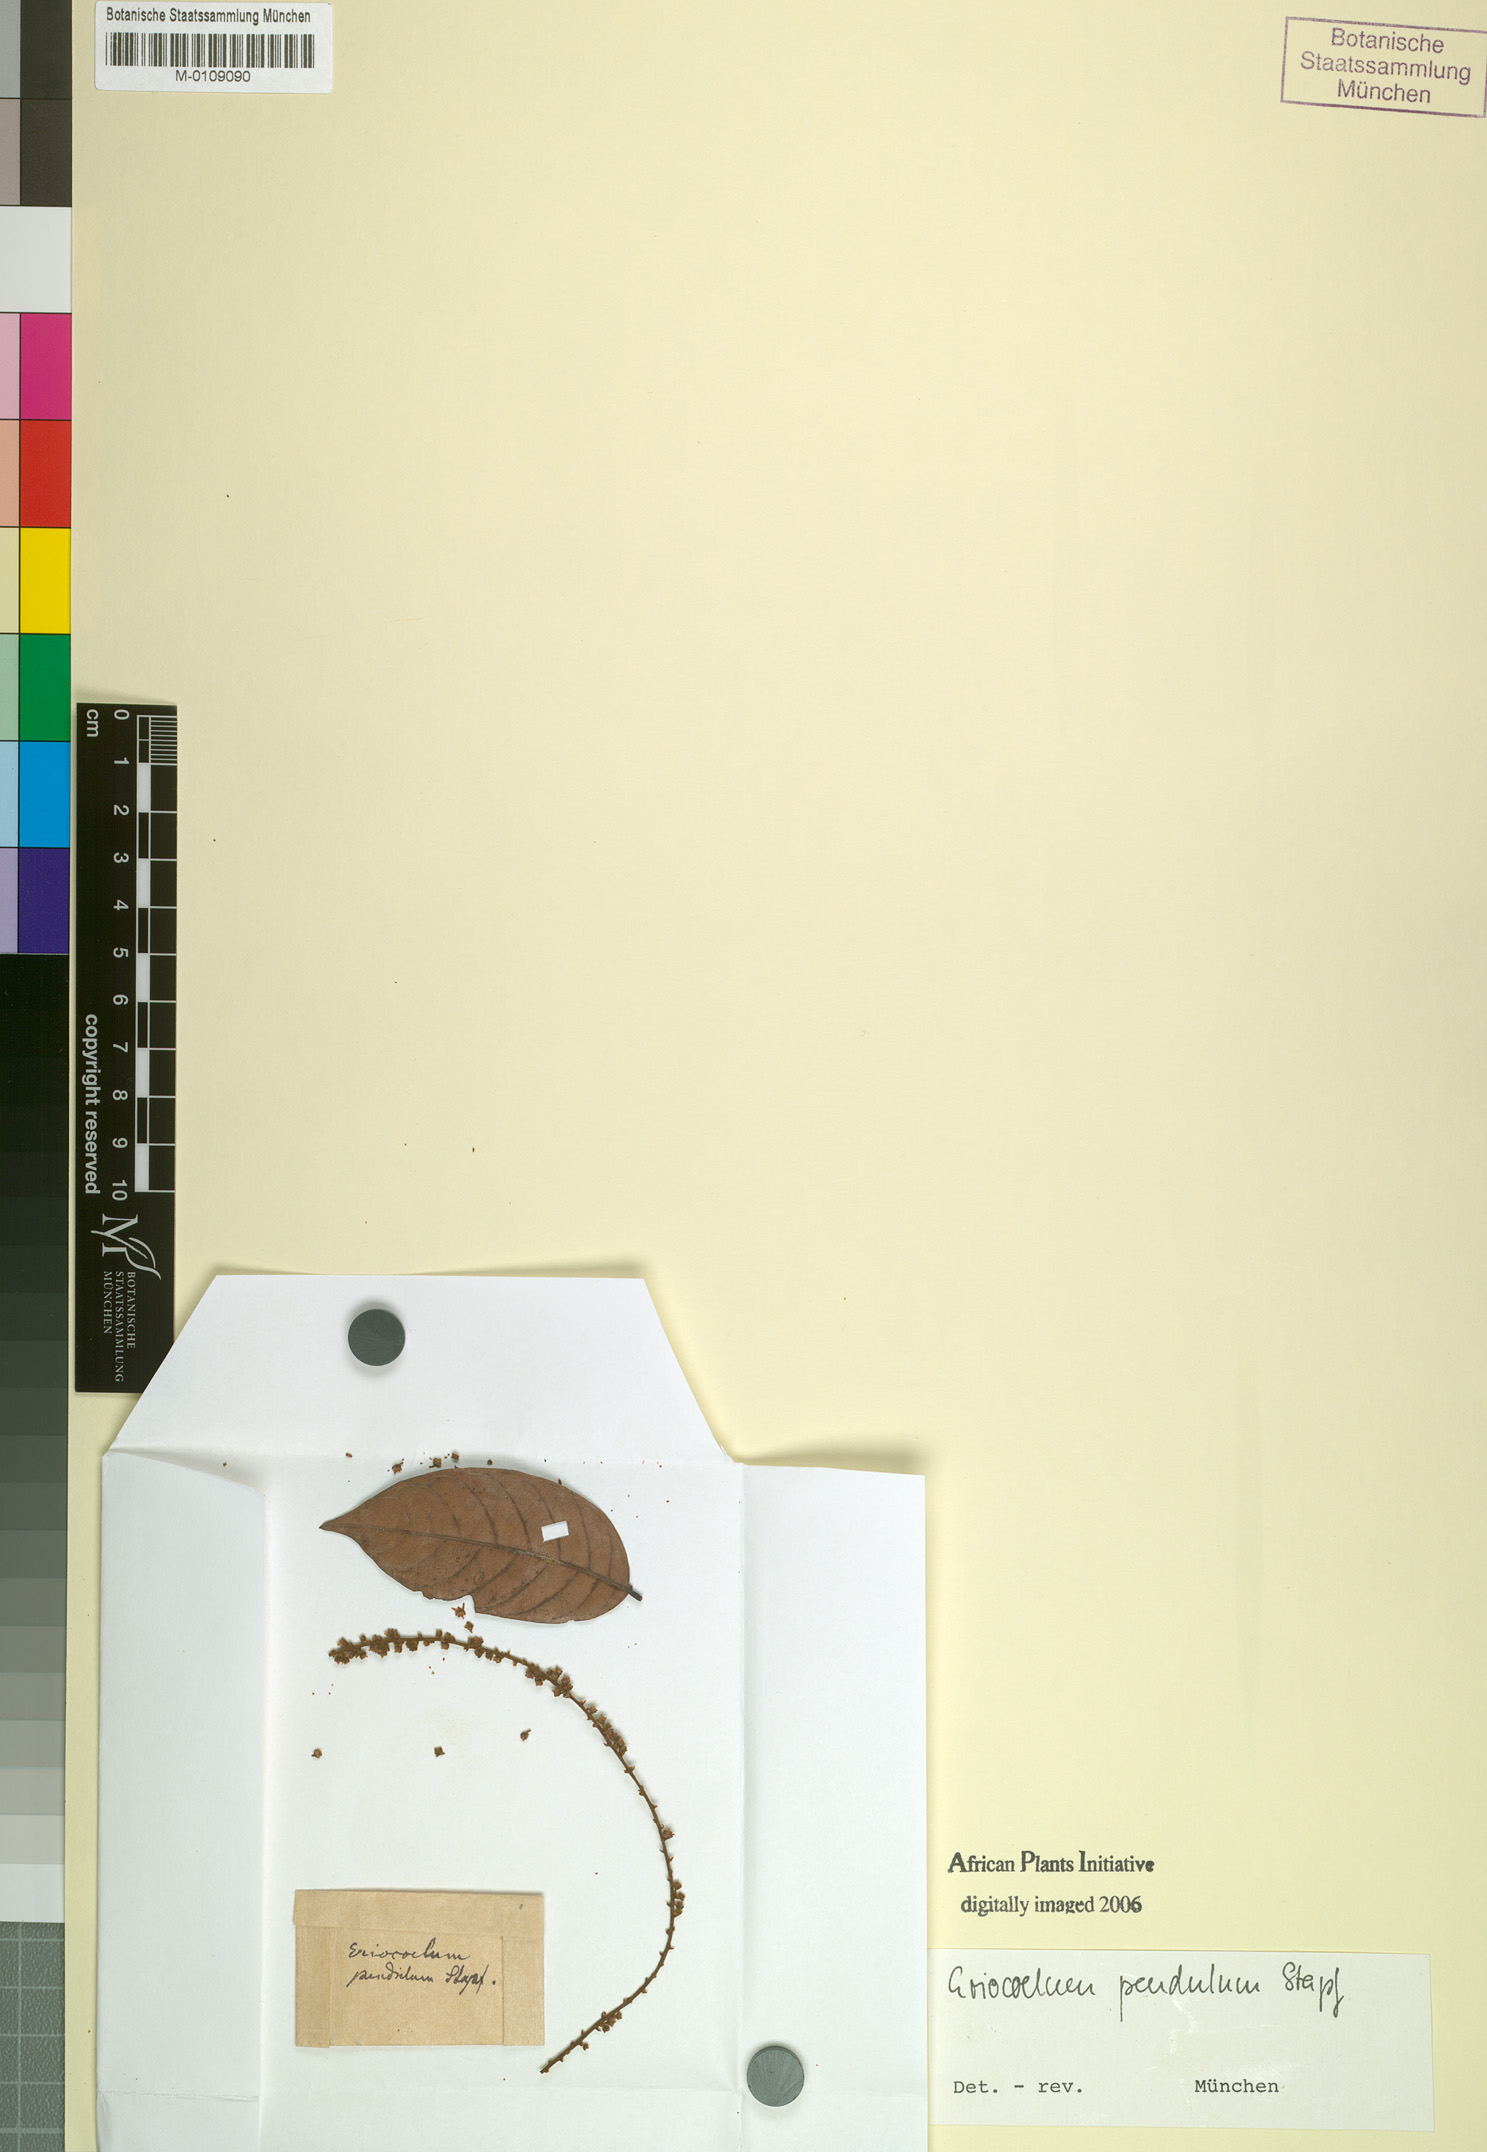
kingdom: Plantae
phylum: Tracheophyta
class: Magnoliopsida
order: Sapindales
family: Sapindaceae
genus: Eriocoelum
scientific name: Eriocoelum racemosum
